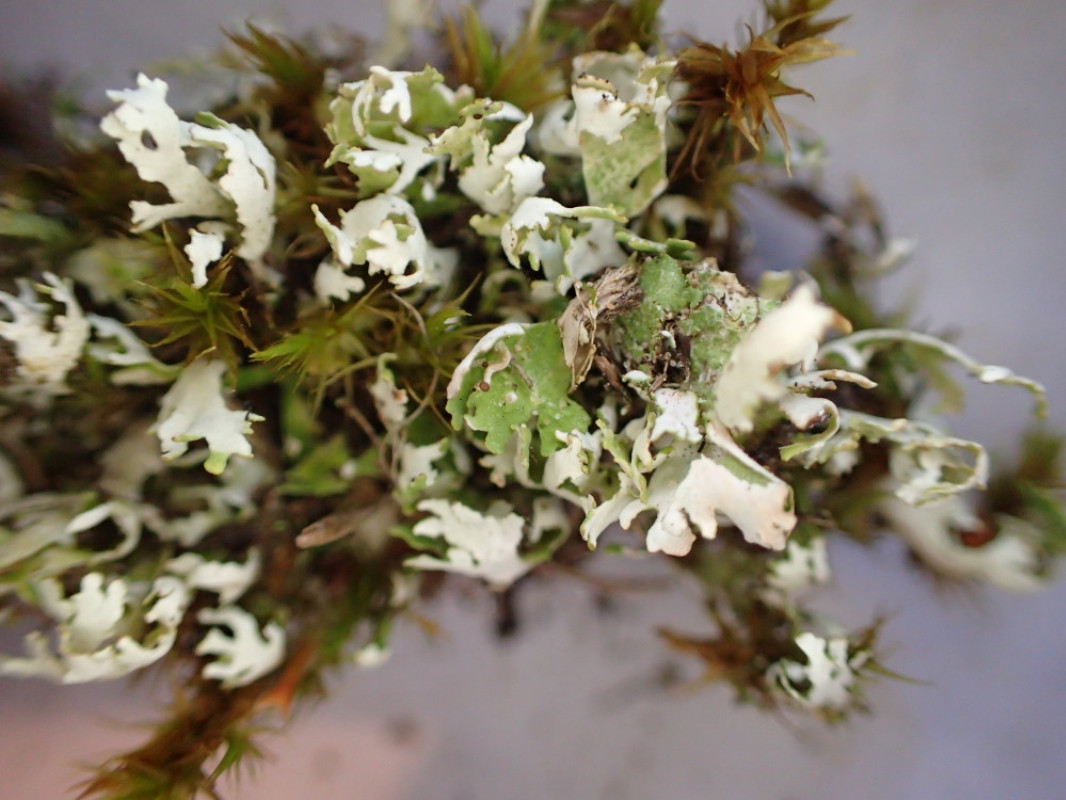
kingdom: Fungi
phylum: Ascomycota
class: Lecanoromycetes
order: Lecanorales
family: Cladoniaceae
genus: Cladonia
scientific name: Cladonia foliacea
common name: fliget bægerlav
